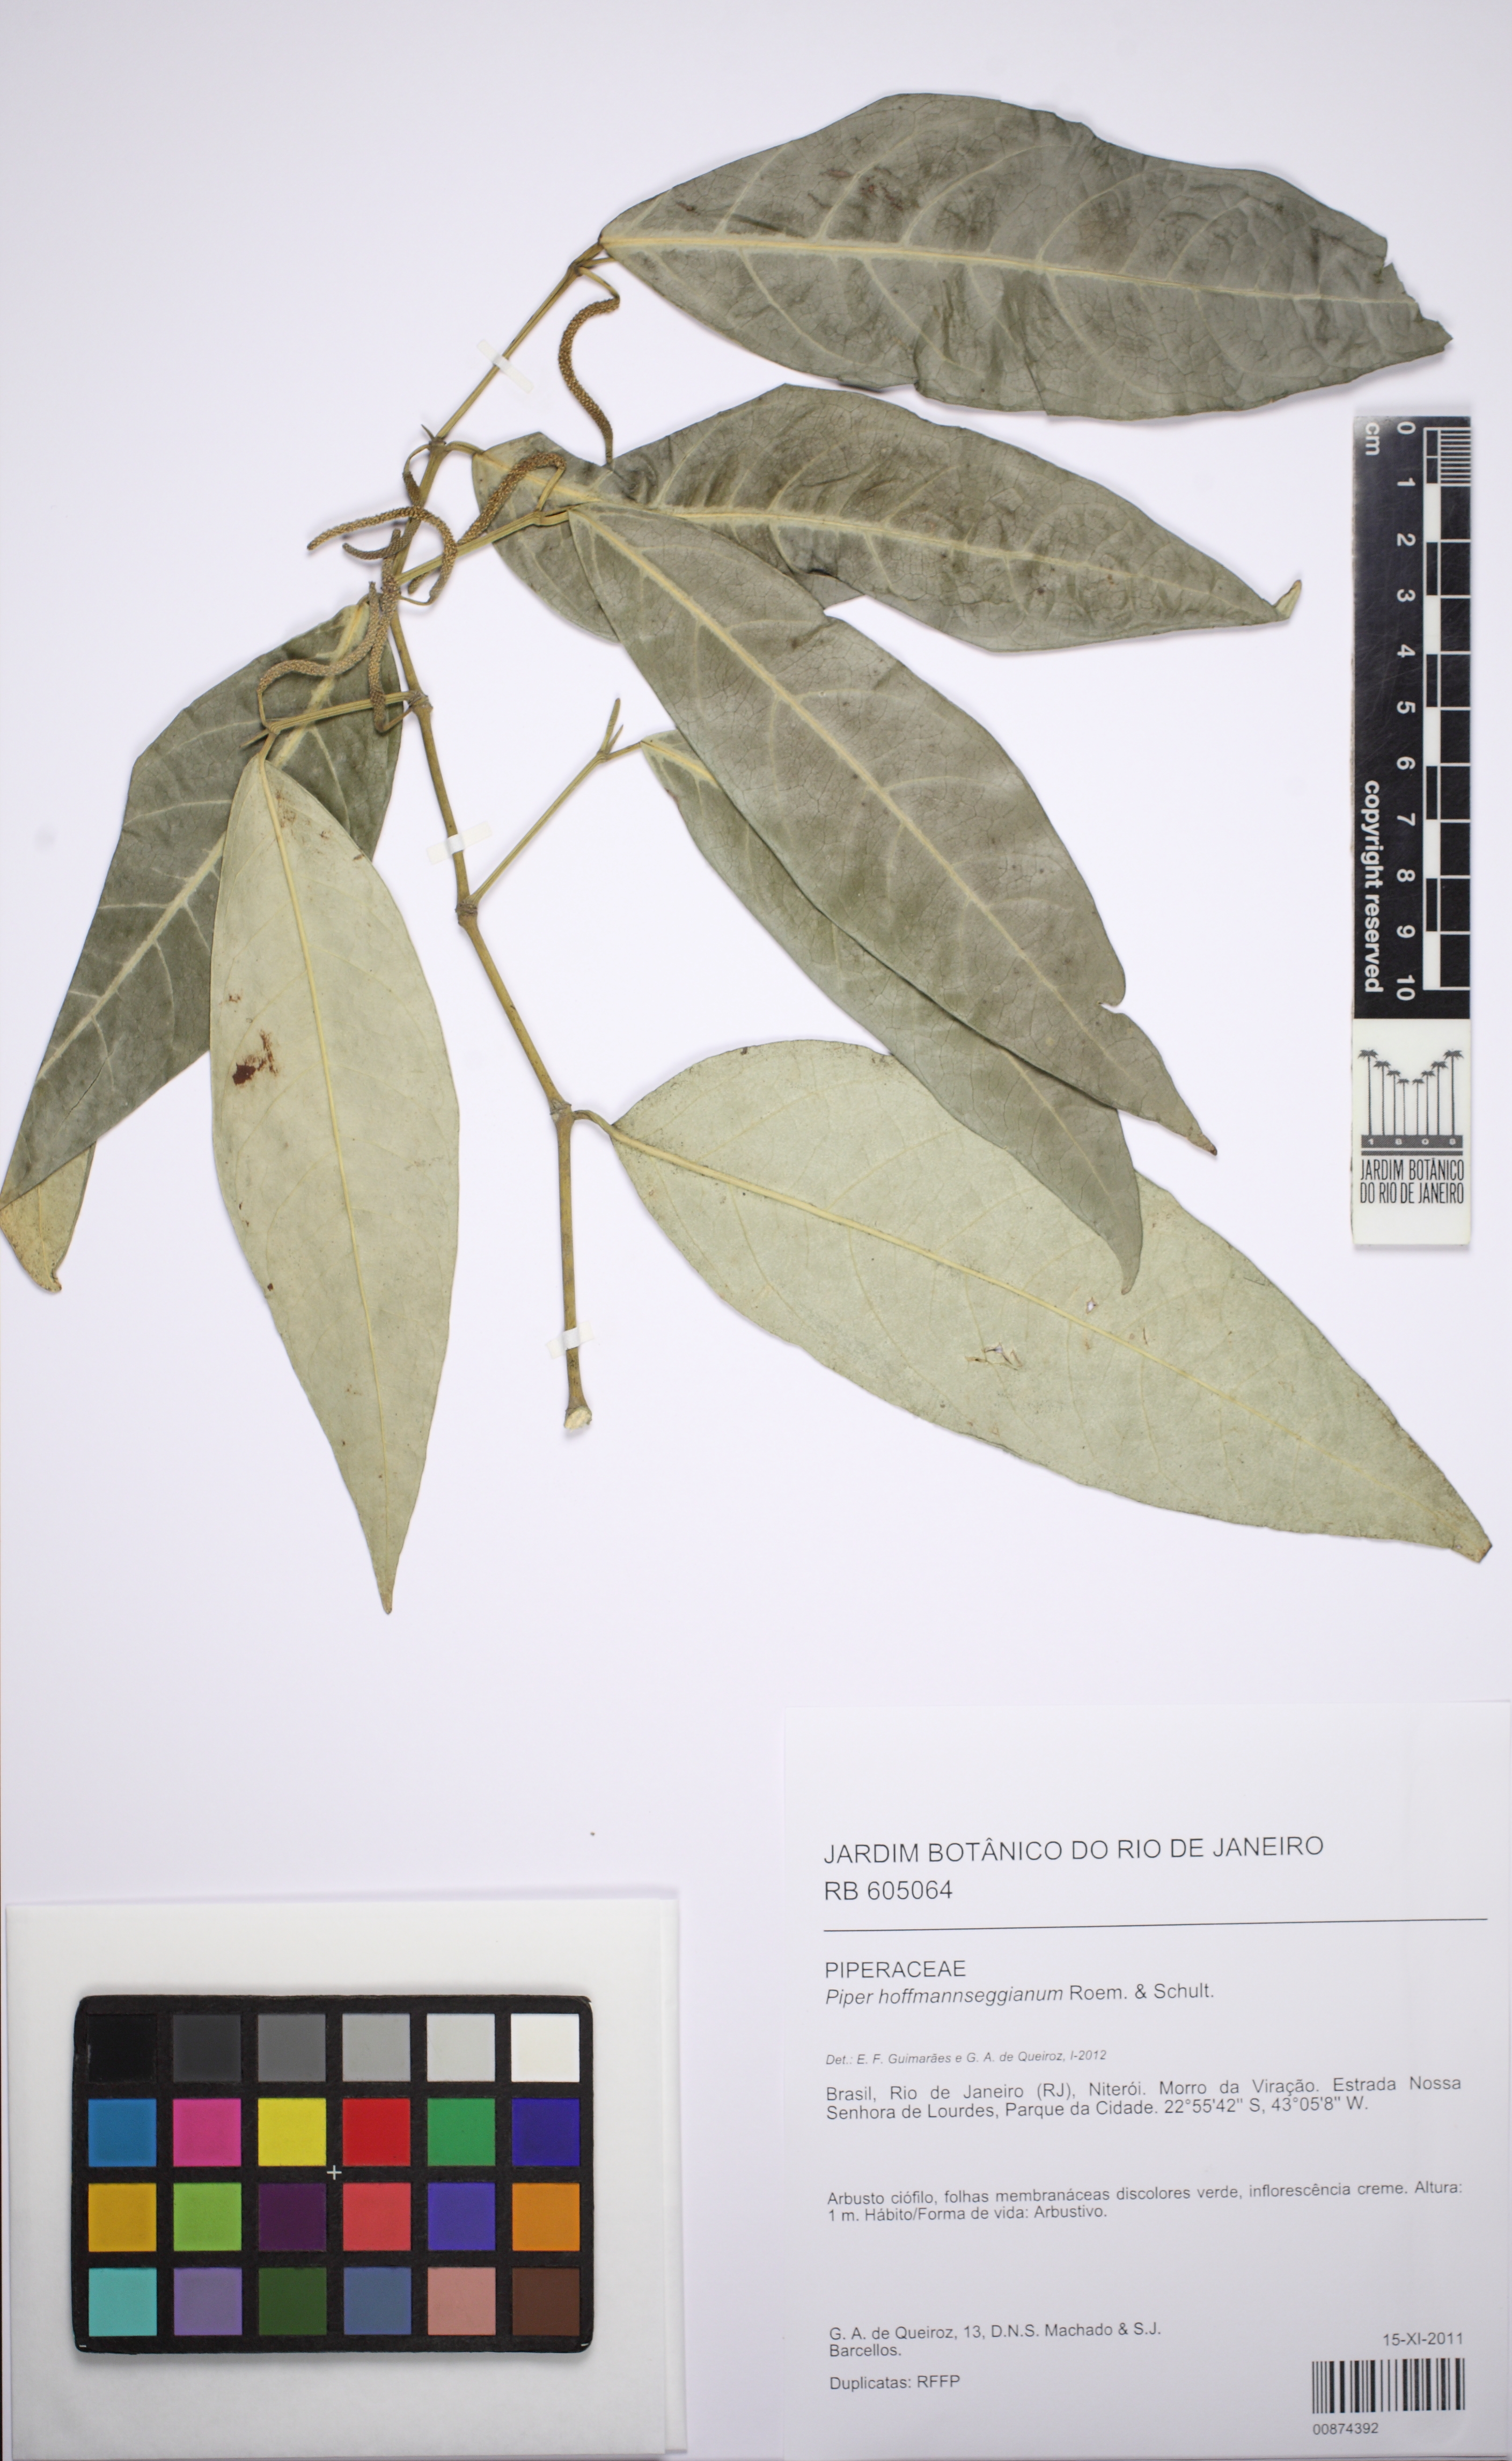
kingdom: Plantae
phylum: Tracheophyta
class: Magnoliopsida
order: Piperales
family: Piperaceae
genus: Piper
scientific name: Piper hoffmannseggianum
